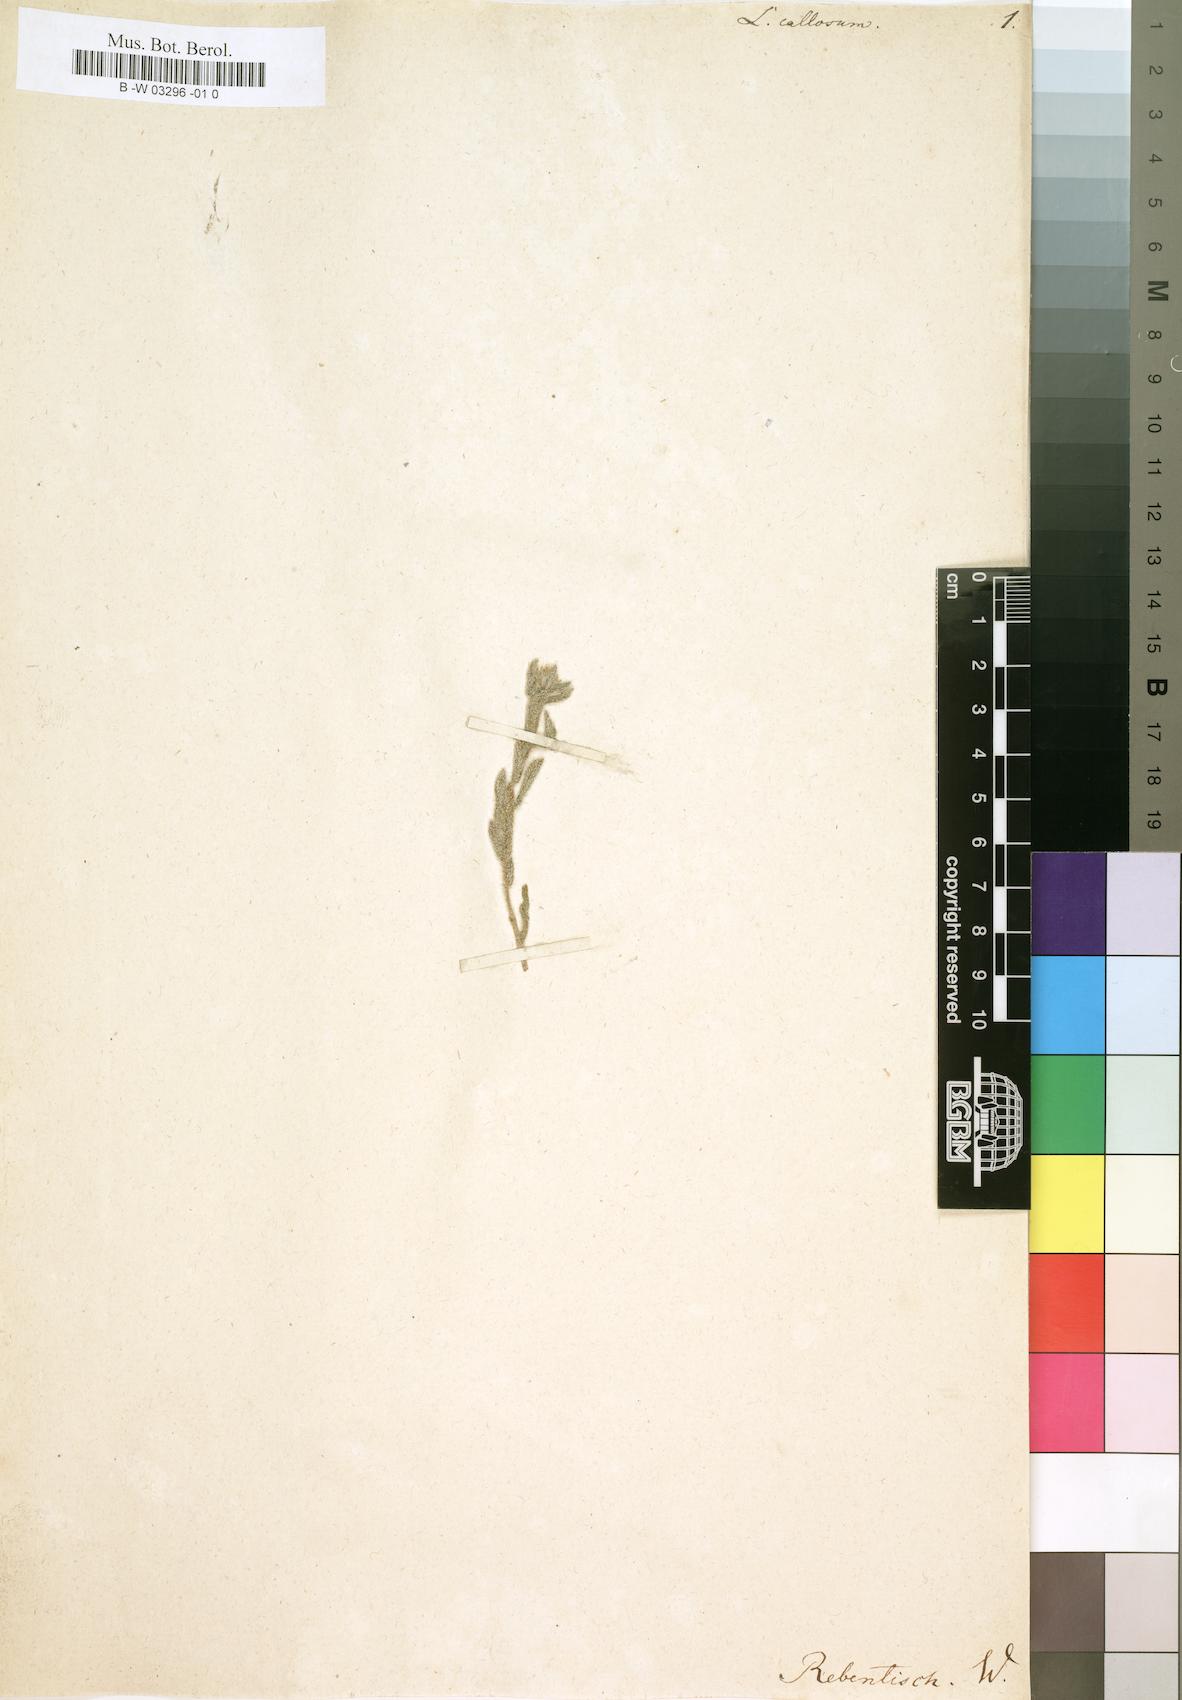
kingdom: Plantae
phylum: Tracheophyta
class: Magnoliopsida
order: Boraginales
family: Boraginaceae
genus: Moltkiopsis
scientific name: Moltkiopsis ciliata
